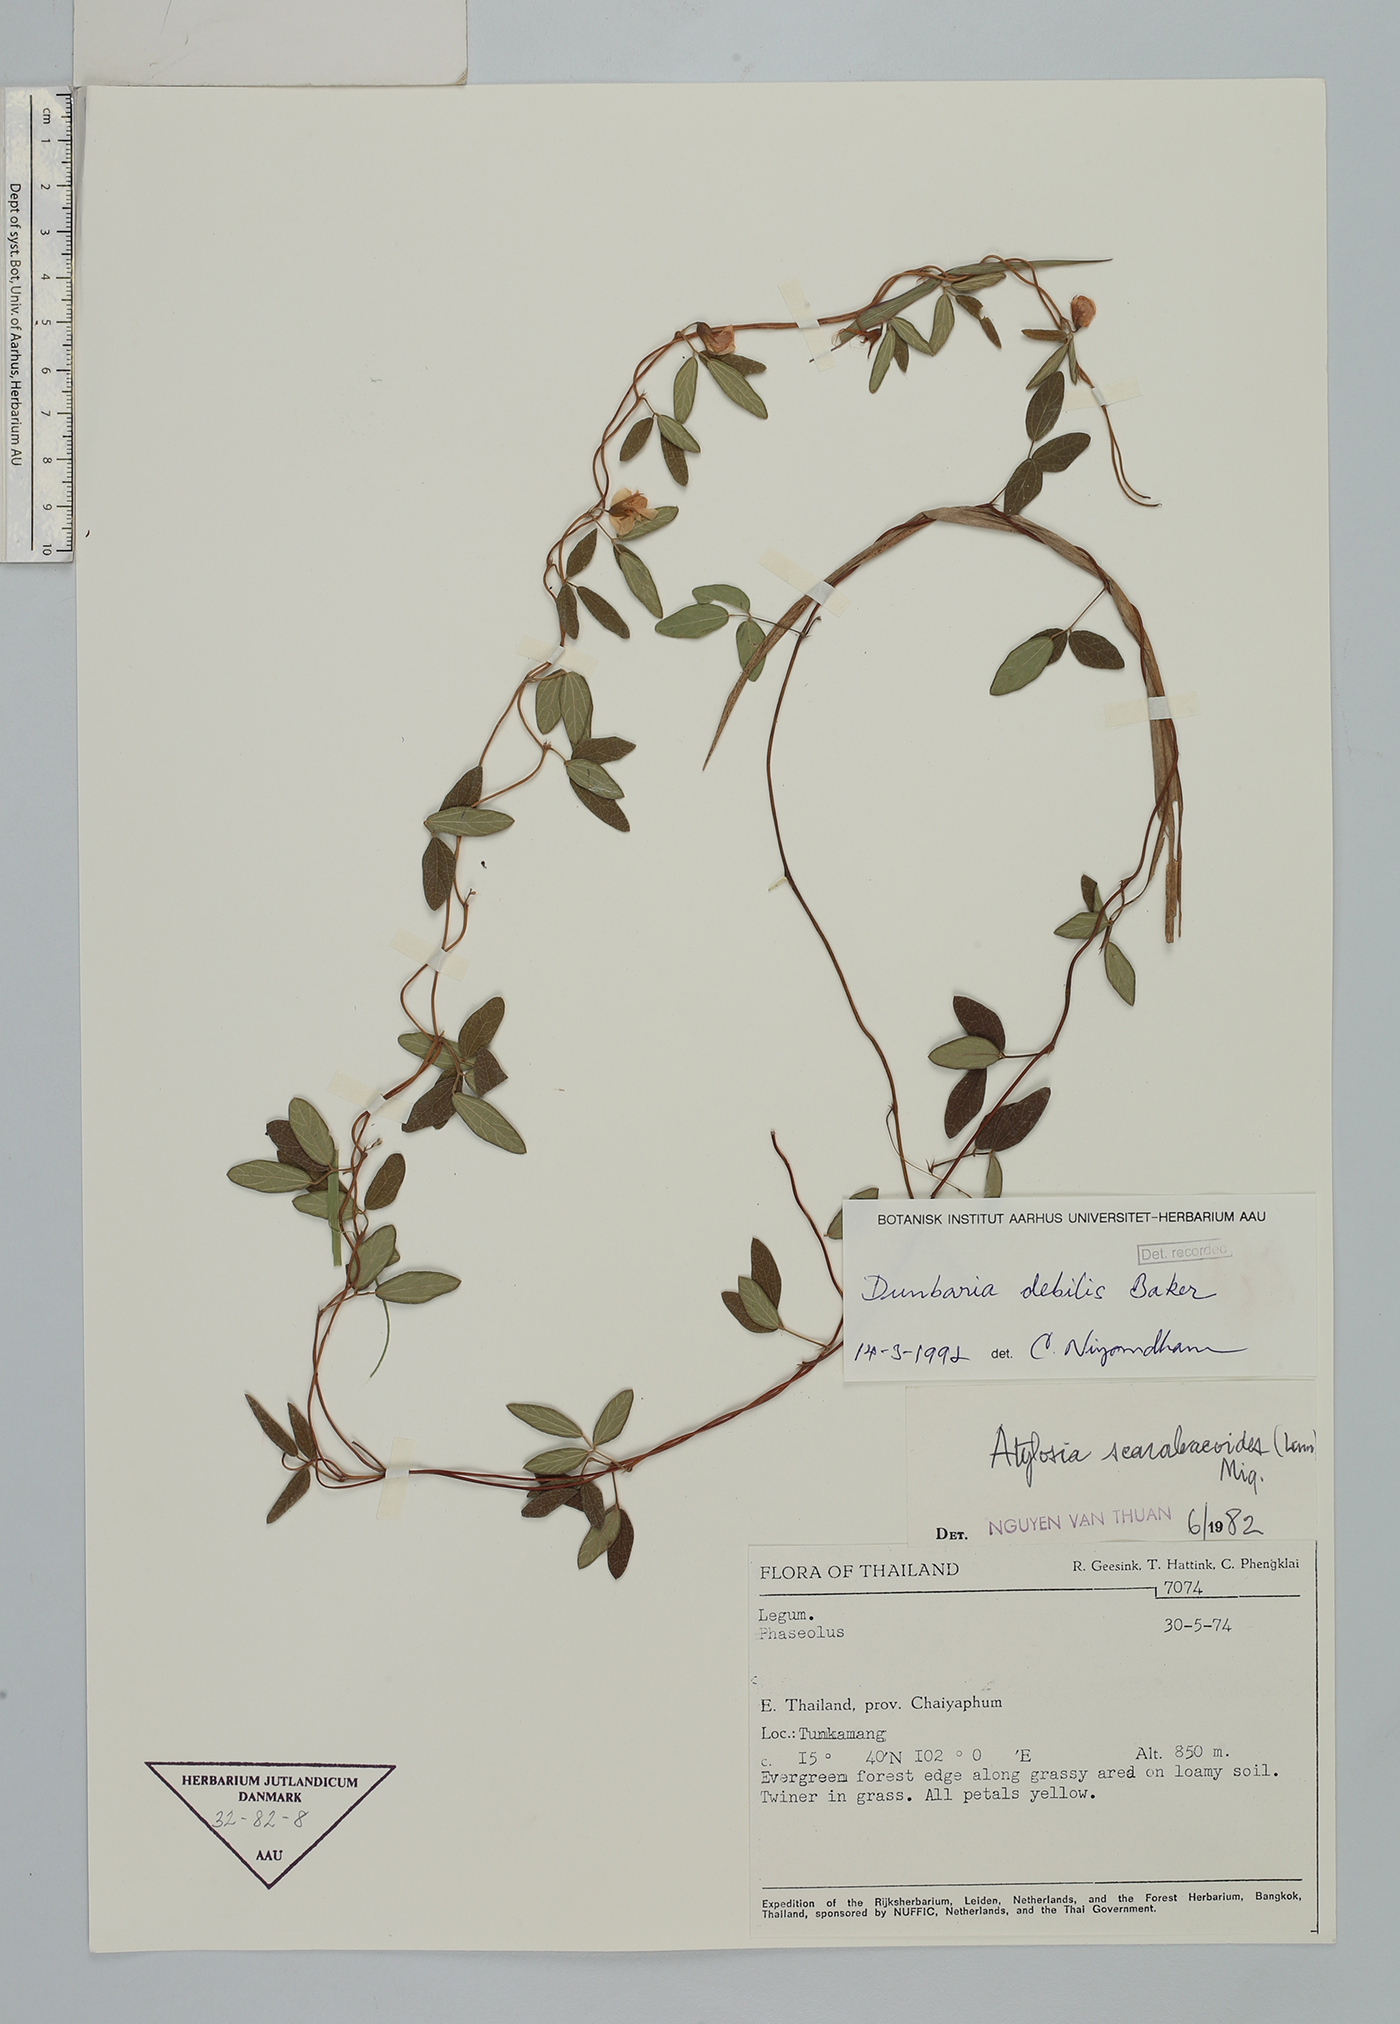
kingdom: Plantae
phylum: Tracheophyta
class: Magnoliopsida
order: Fabales
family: Fabaceae
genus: Dunbaria
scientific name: Dunbaria debilis
